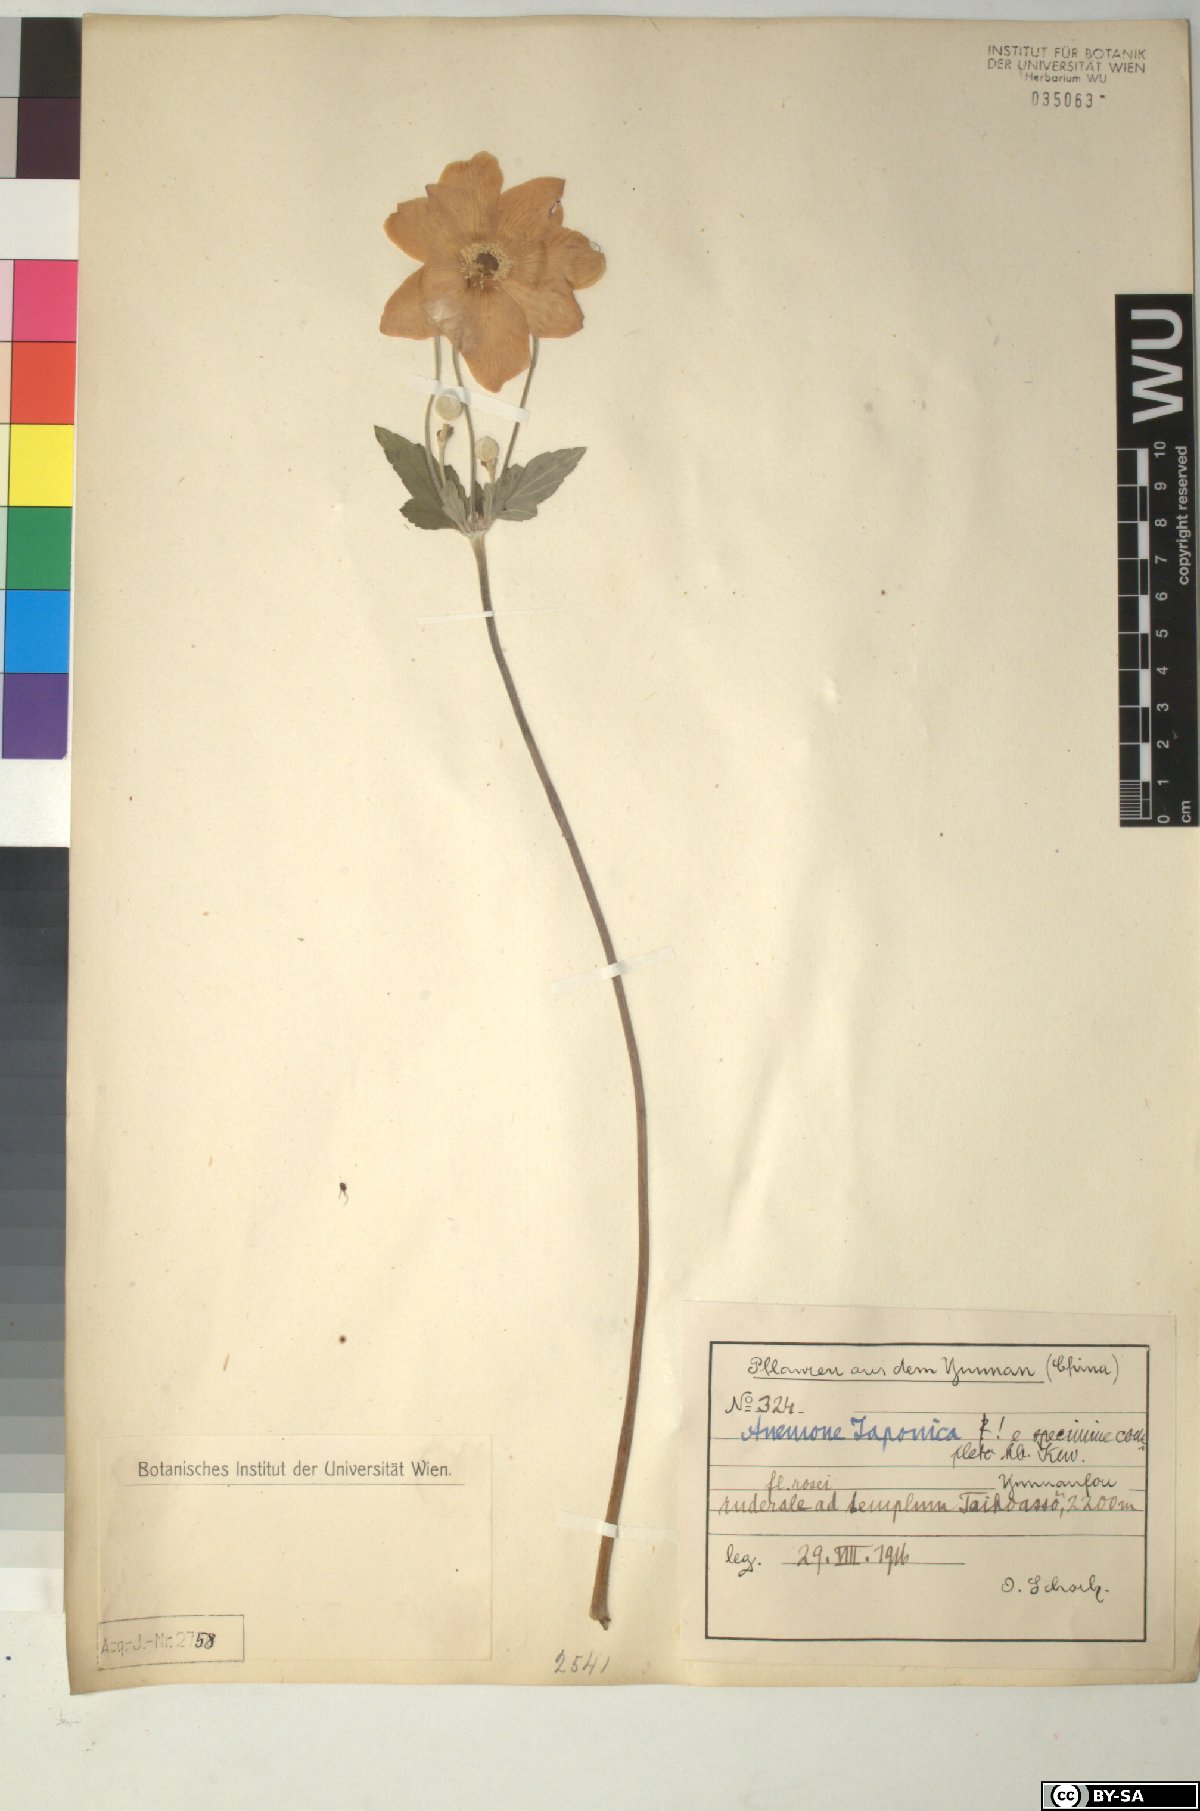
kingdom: Plantae
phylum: Tracheophyta
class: Magnoliopsida
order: Ranunculales
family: Ranunculaceae
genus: Eriocapitella
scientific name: Eriocapitella japonica
